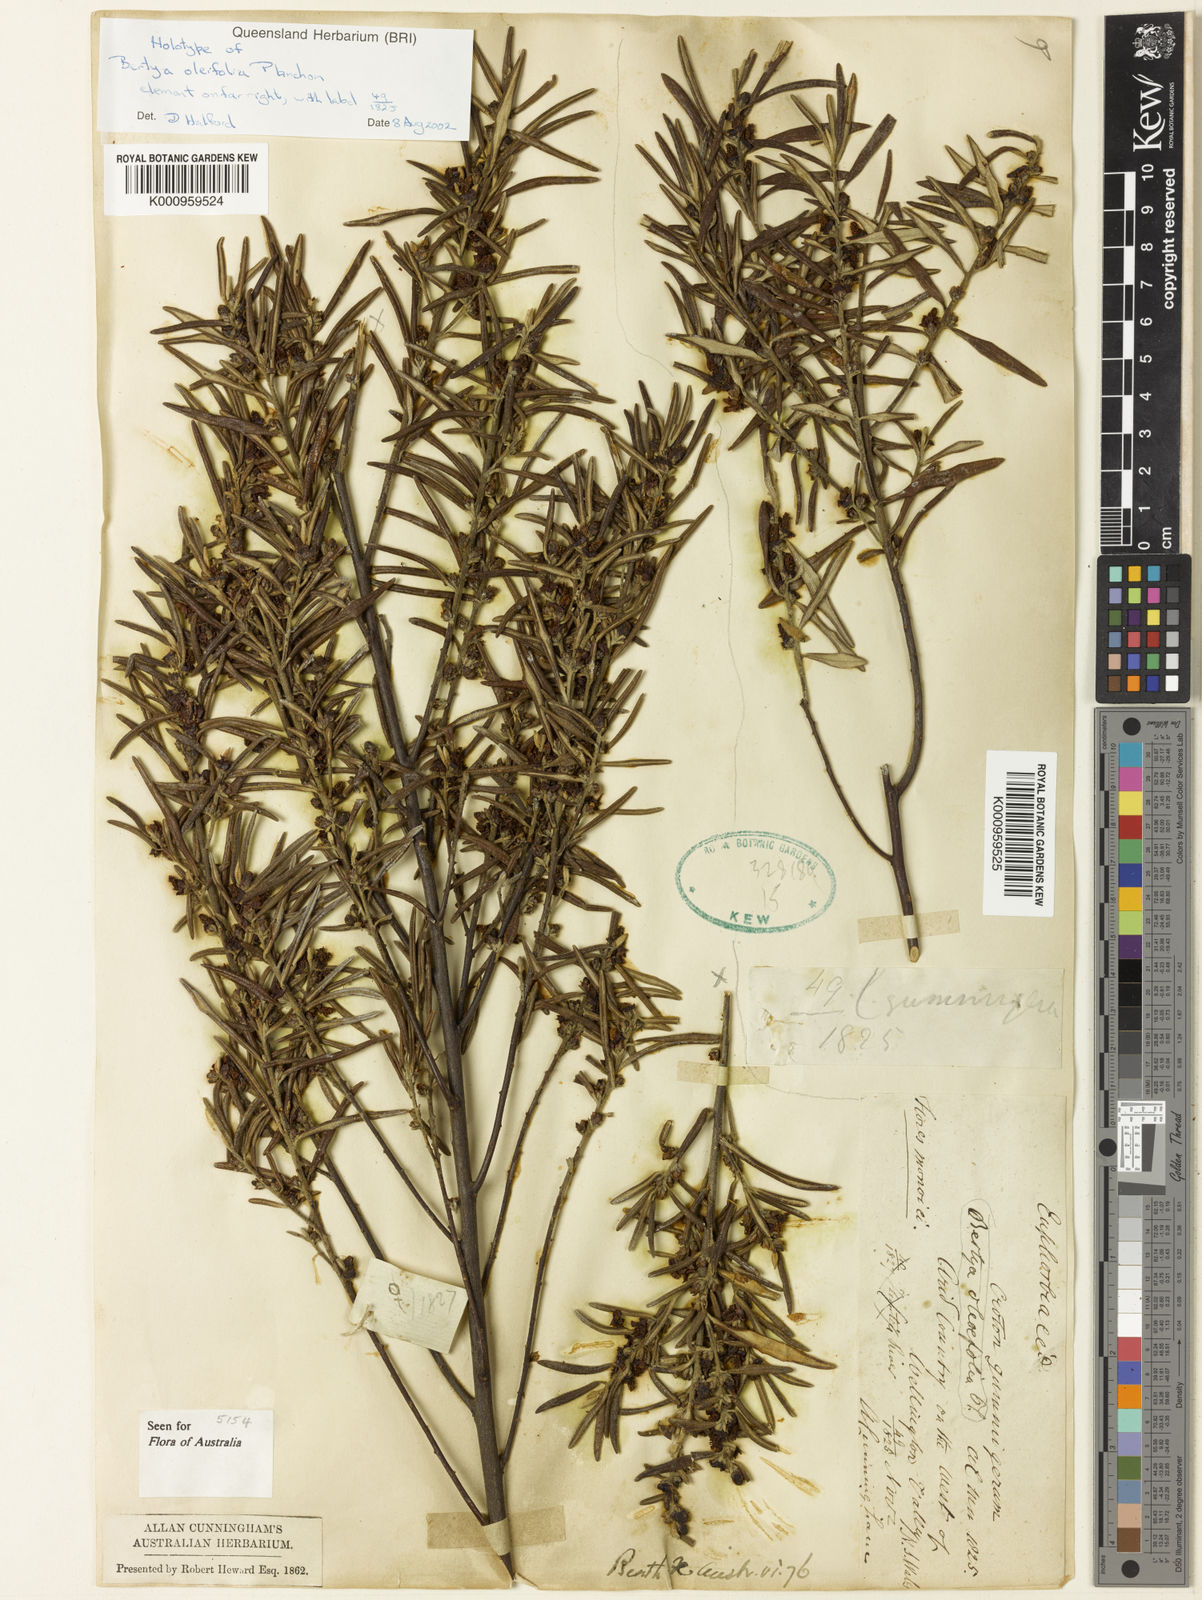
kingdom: Plantae
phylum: Tracheophyta
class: Magnoliopsida
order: Malpighiales
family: Euphorbiaceae
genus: Bertya
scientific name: Bertya oleifolia
